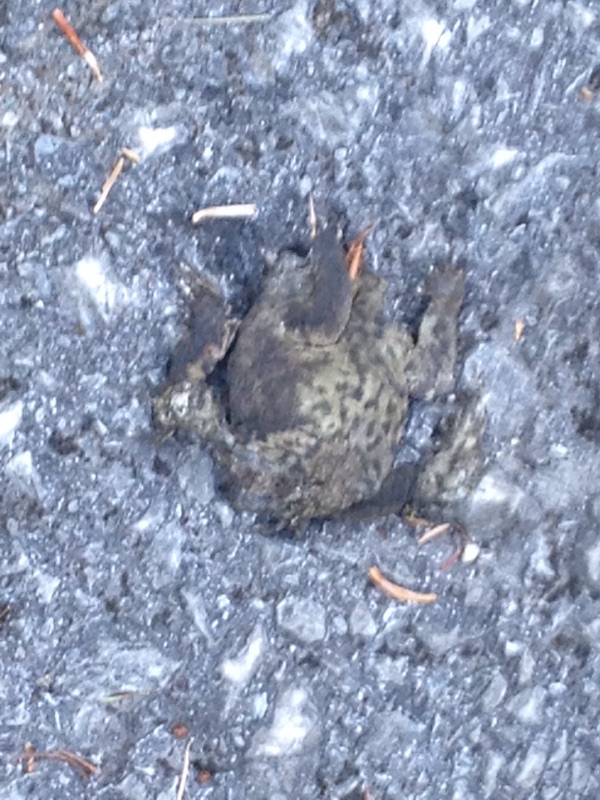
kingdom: Animalia
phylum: Chordata
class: Amphibia
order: Anura
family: Bufonidae
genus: Bufo
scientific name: Bufo bufo
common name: Common toad
